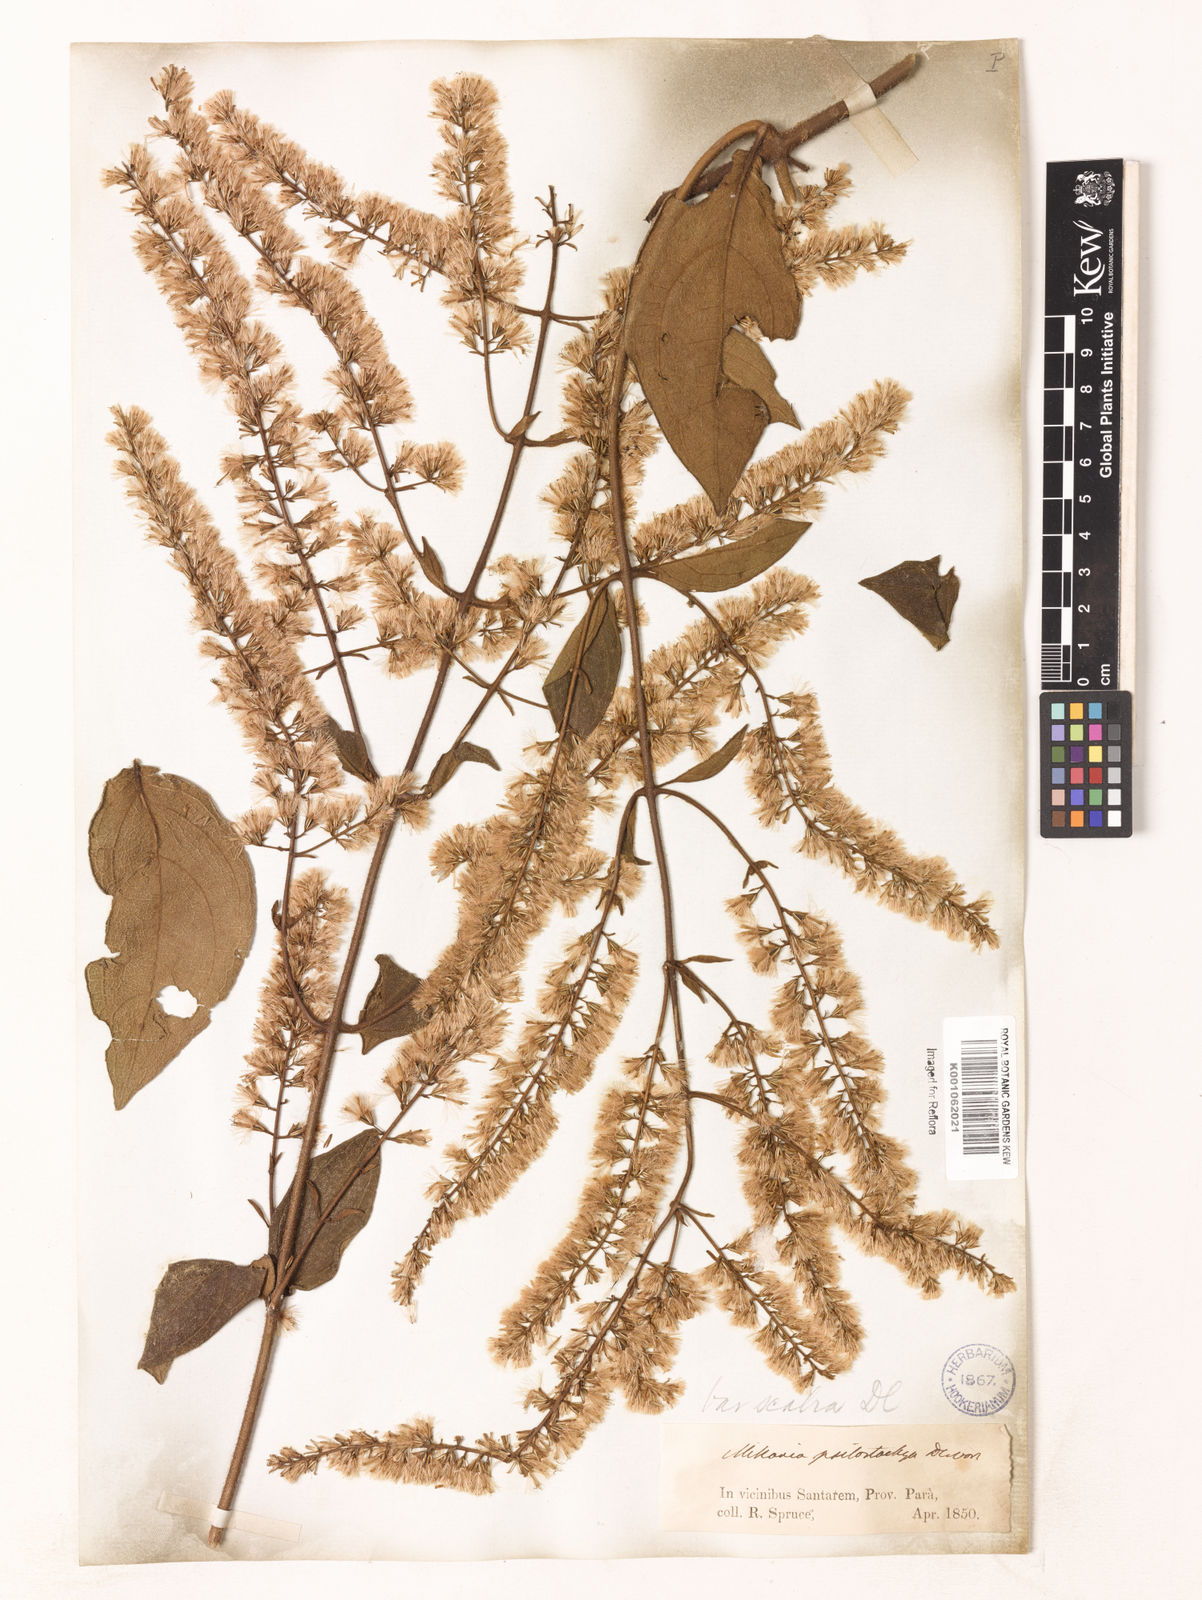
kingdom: Plantae
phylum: Tracheophyta
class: Magnoliopsida
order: Asterales
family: Asteraceae
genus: Mikania
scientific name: Mikania psilostachya
